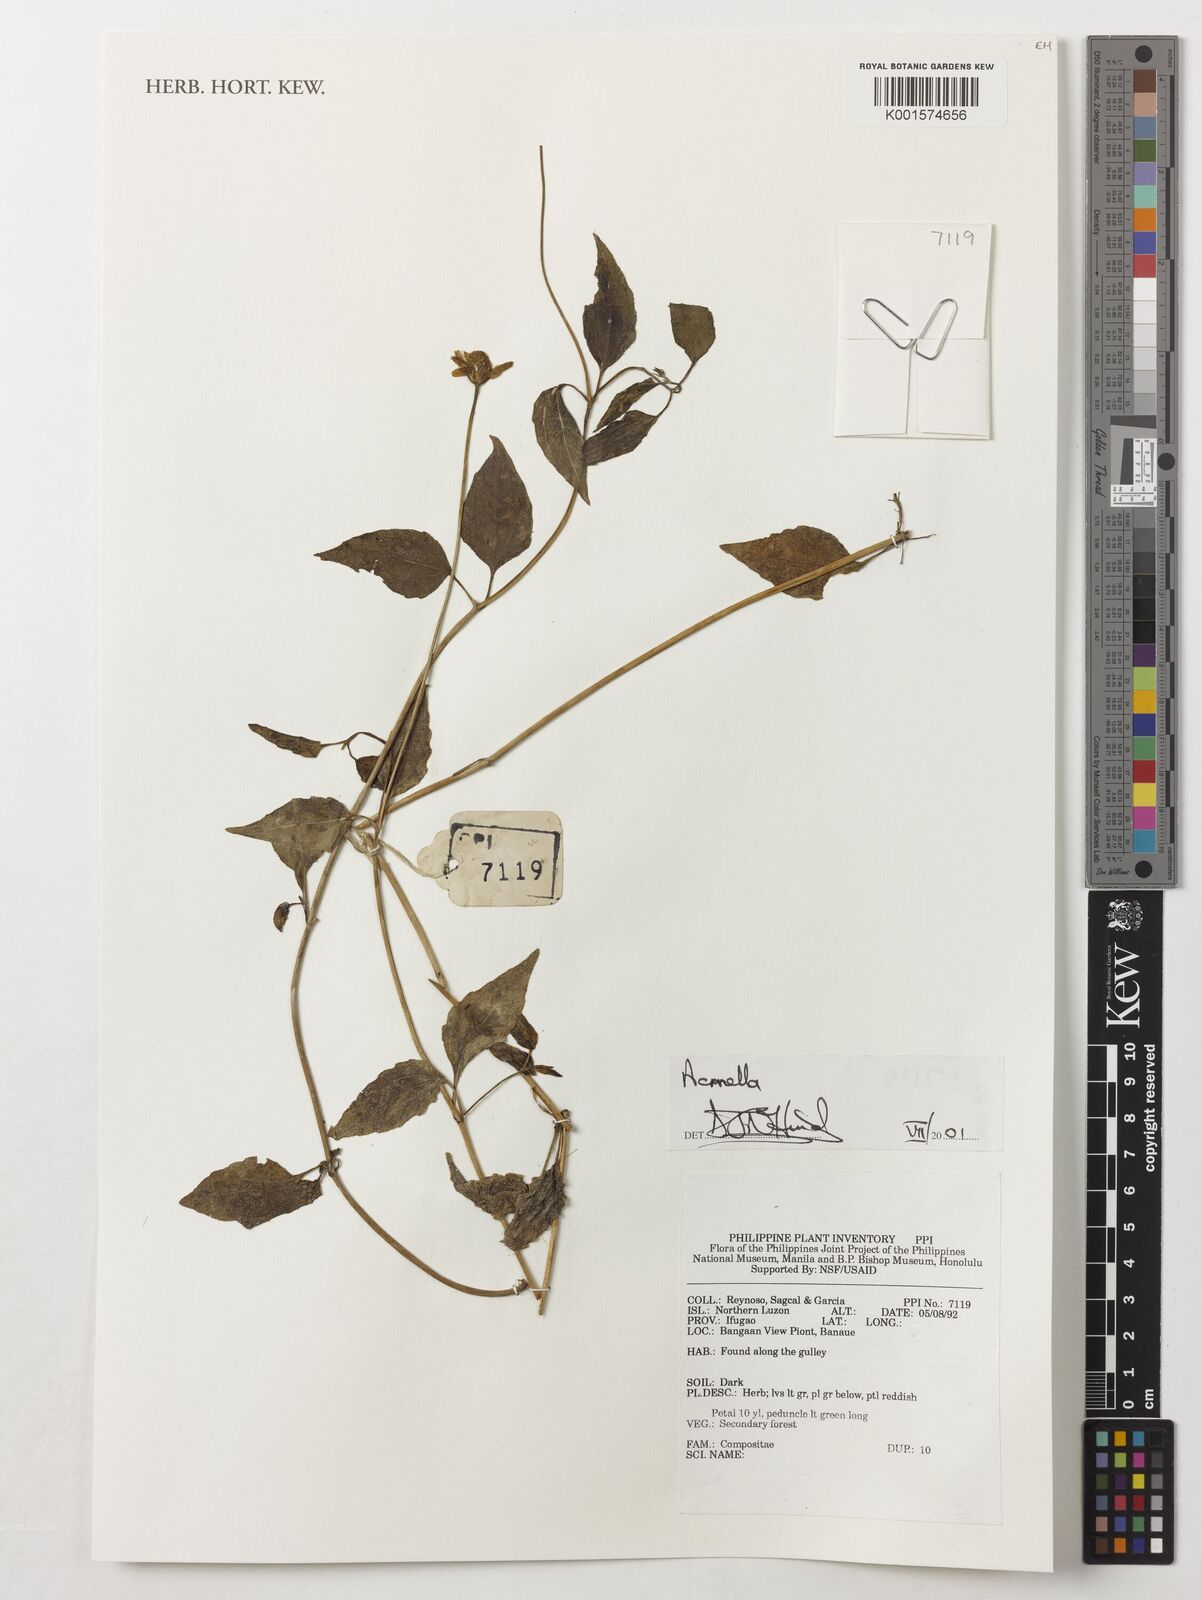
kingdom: Plantae
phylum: Tracheophyta
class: Magnoliopsida
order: Asterales
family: Asteraceae
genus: Acmella
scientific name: Acmella
